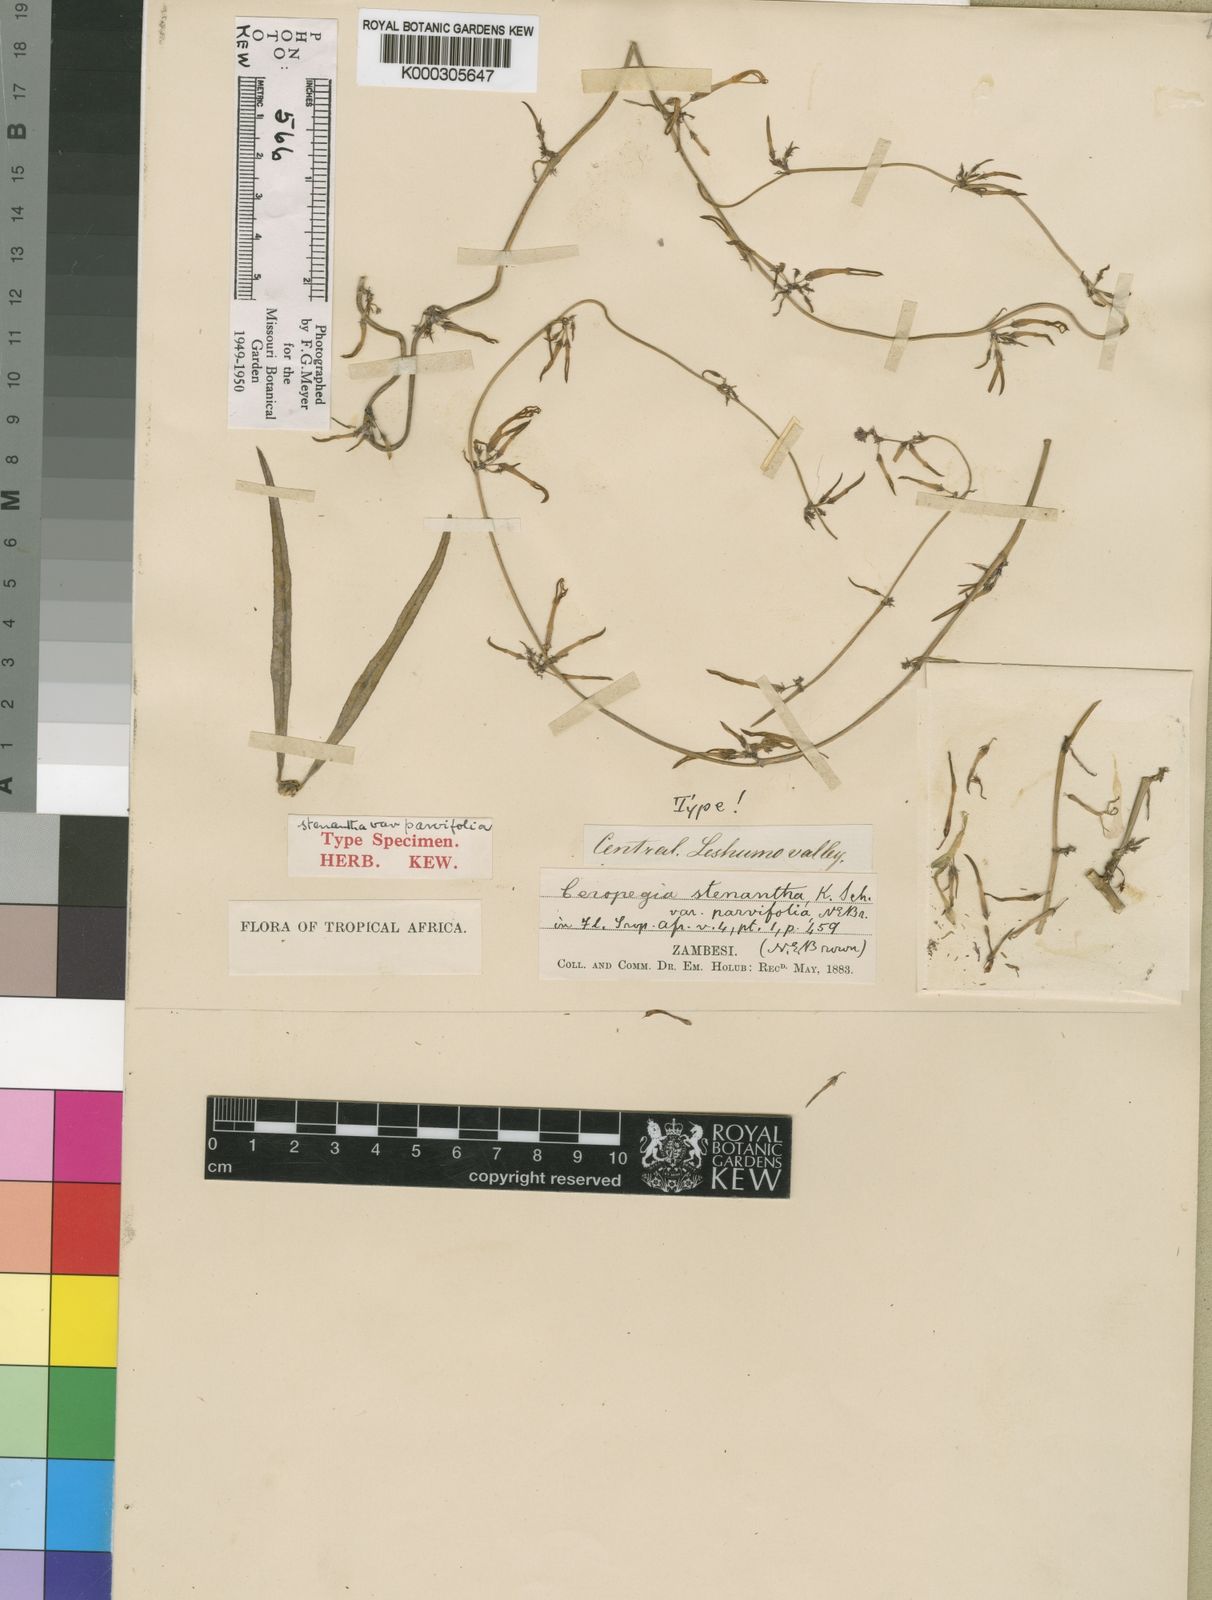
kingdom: Plantae
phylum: Tracheophyta
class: Magnoliopsida
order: Gentianales
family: Apocynaceae
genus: Ceropegia
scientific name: Ceropegia stenantha
